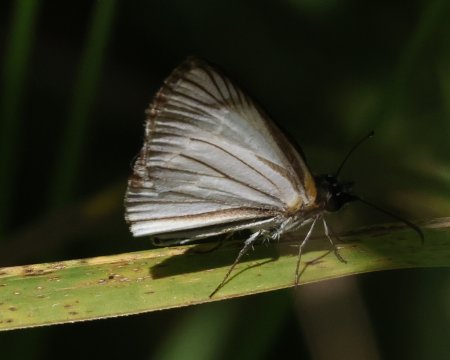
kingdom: Animalia
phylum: Arthropoda
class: Insecta
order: Lepidoptera
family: Hesperiidae
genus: Heliopetes
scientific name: Heliopetes arsalte
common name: Veined White-Skipper
